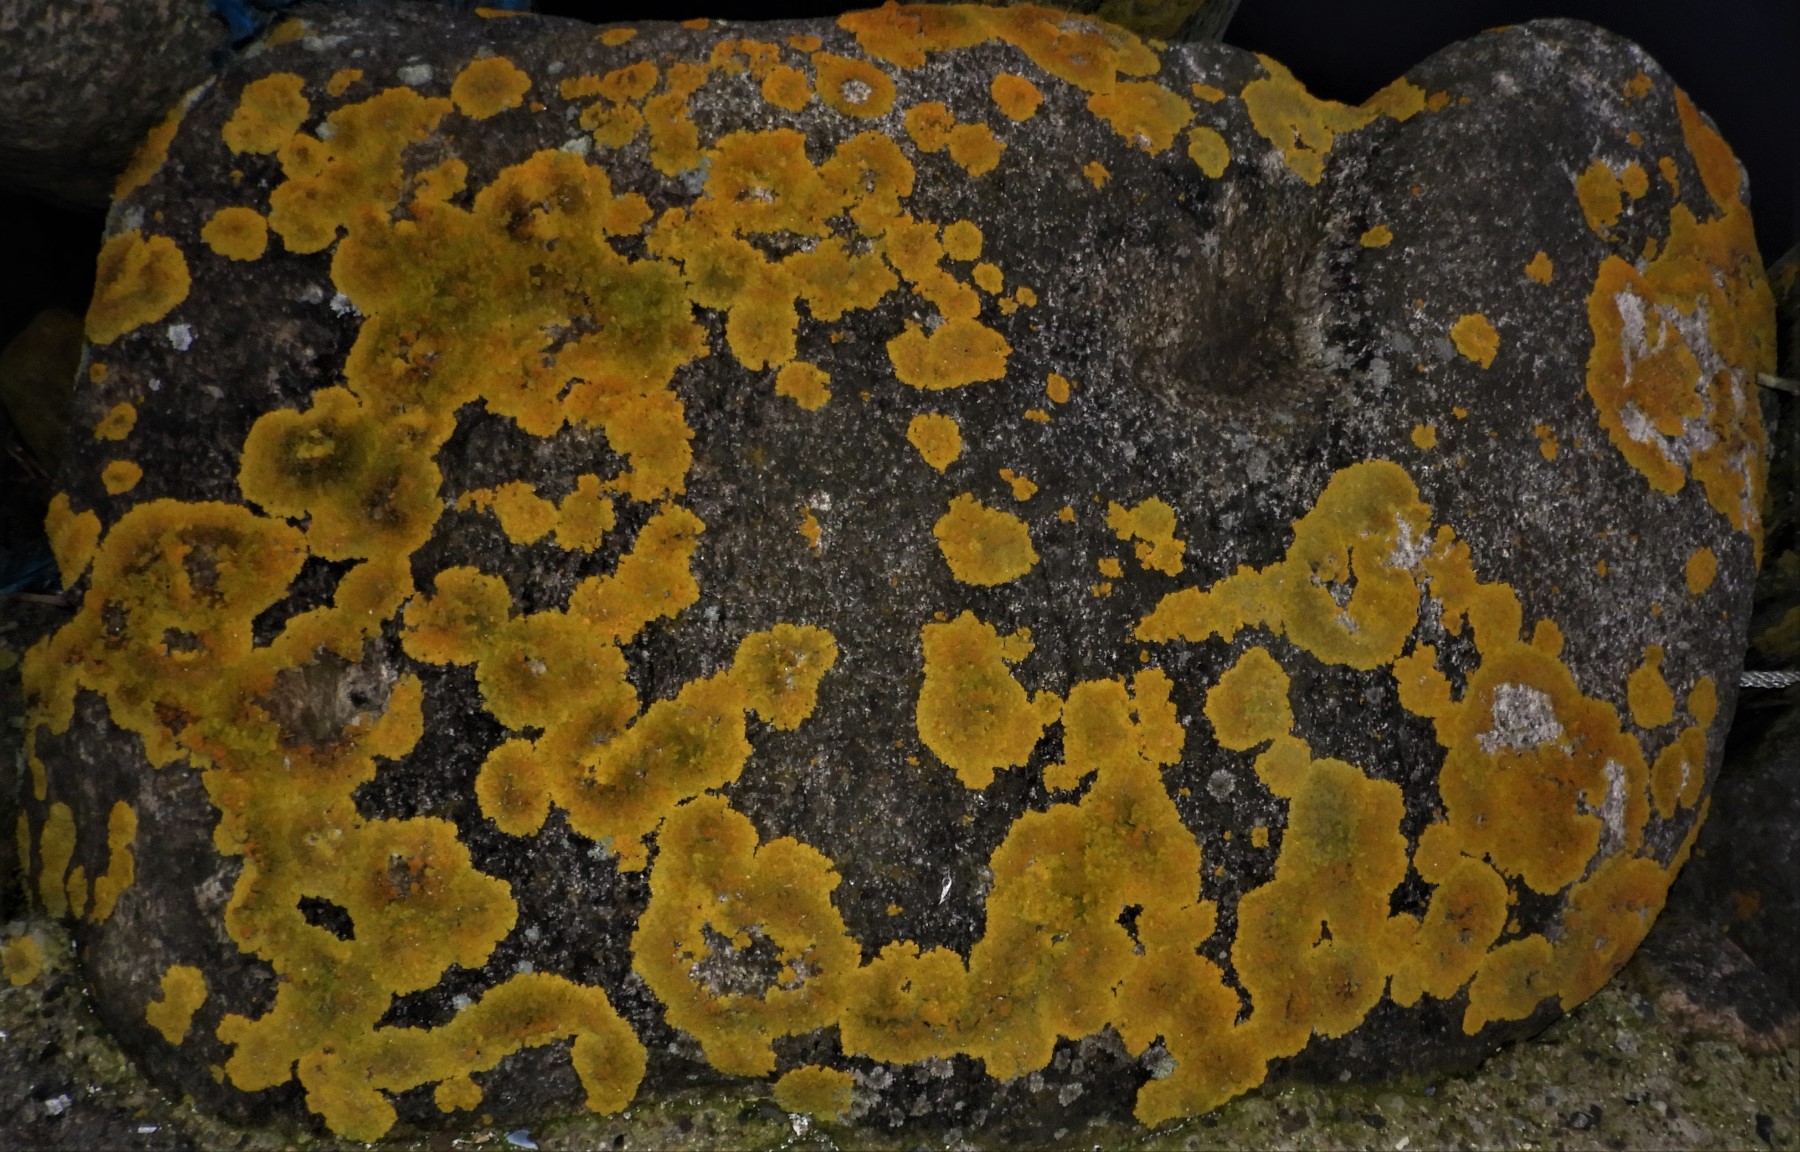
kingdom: Fungi
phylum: Ascomycota
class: Lecanoromycetes
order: Teloschistales
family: Teloschistaceae
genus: Xanthoria
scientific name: Xanthoria parietina
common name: almindelig væggelav
